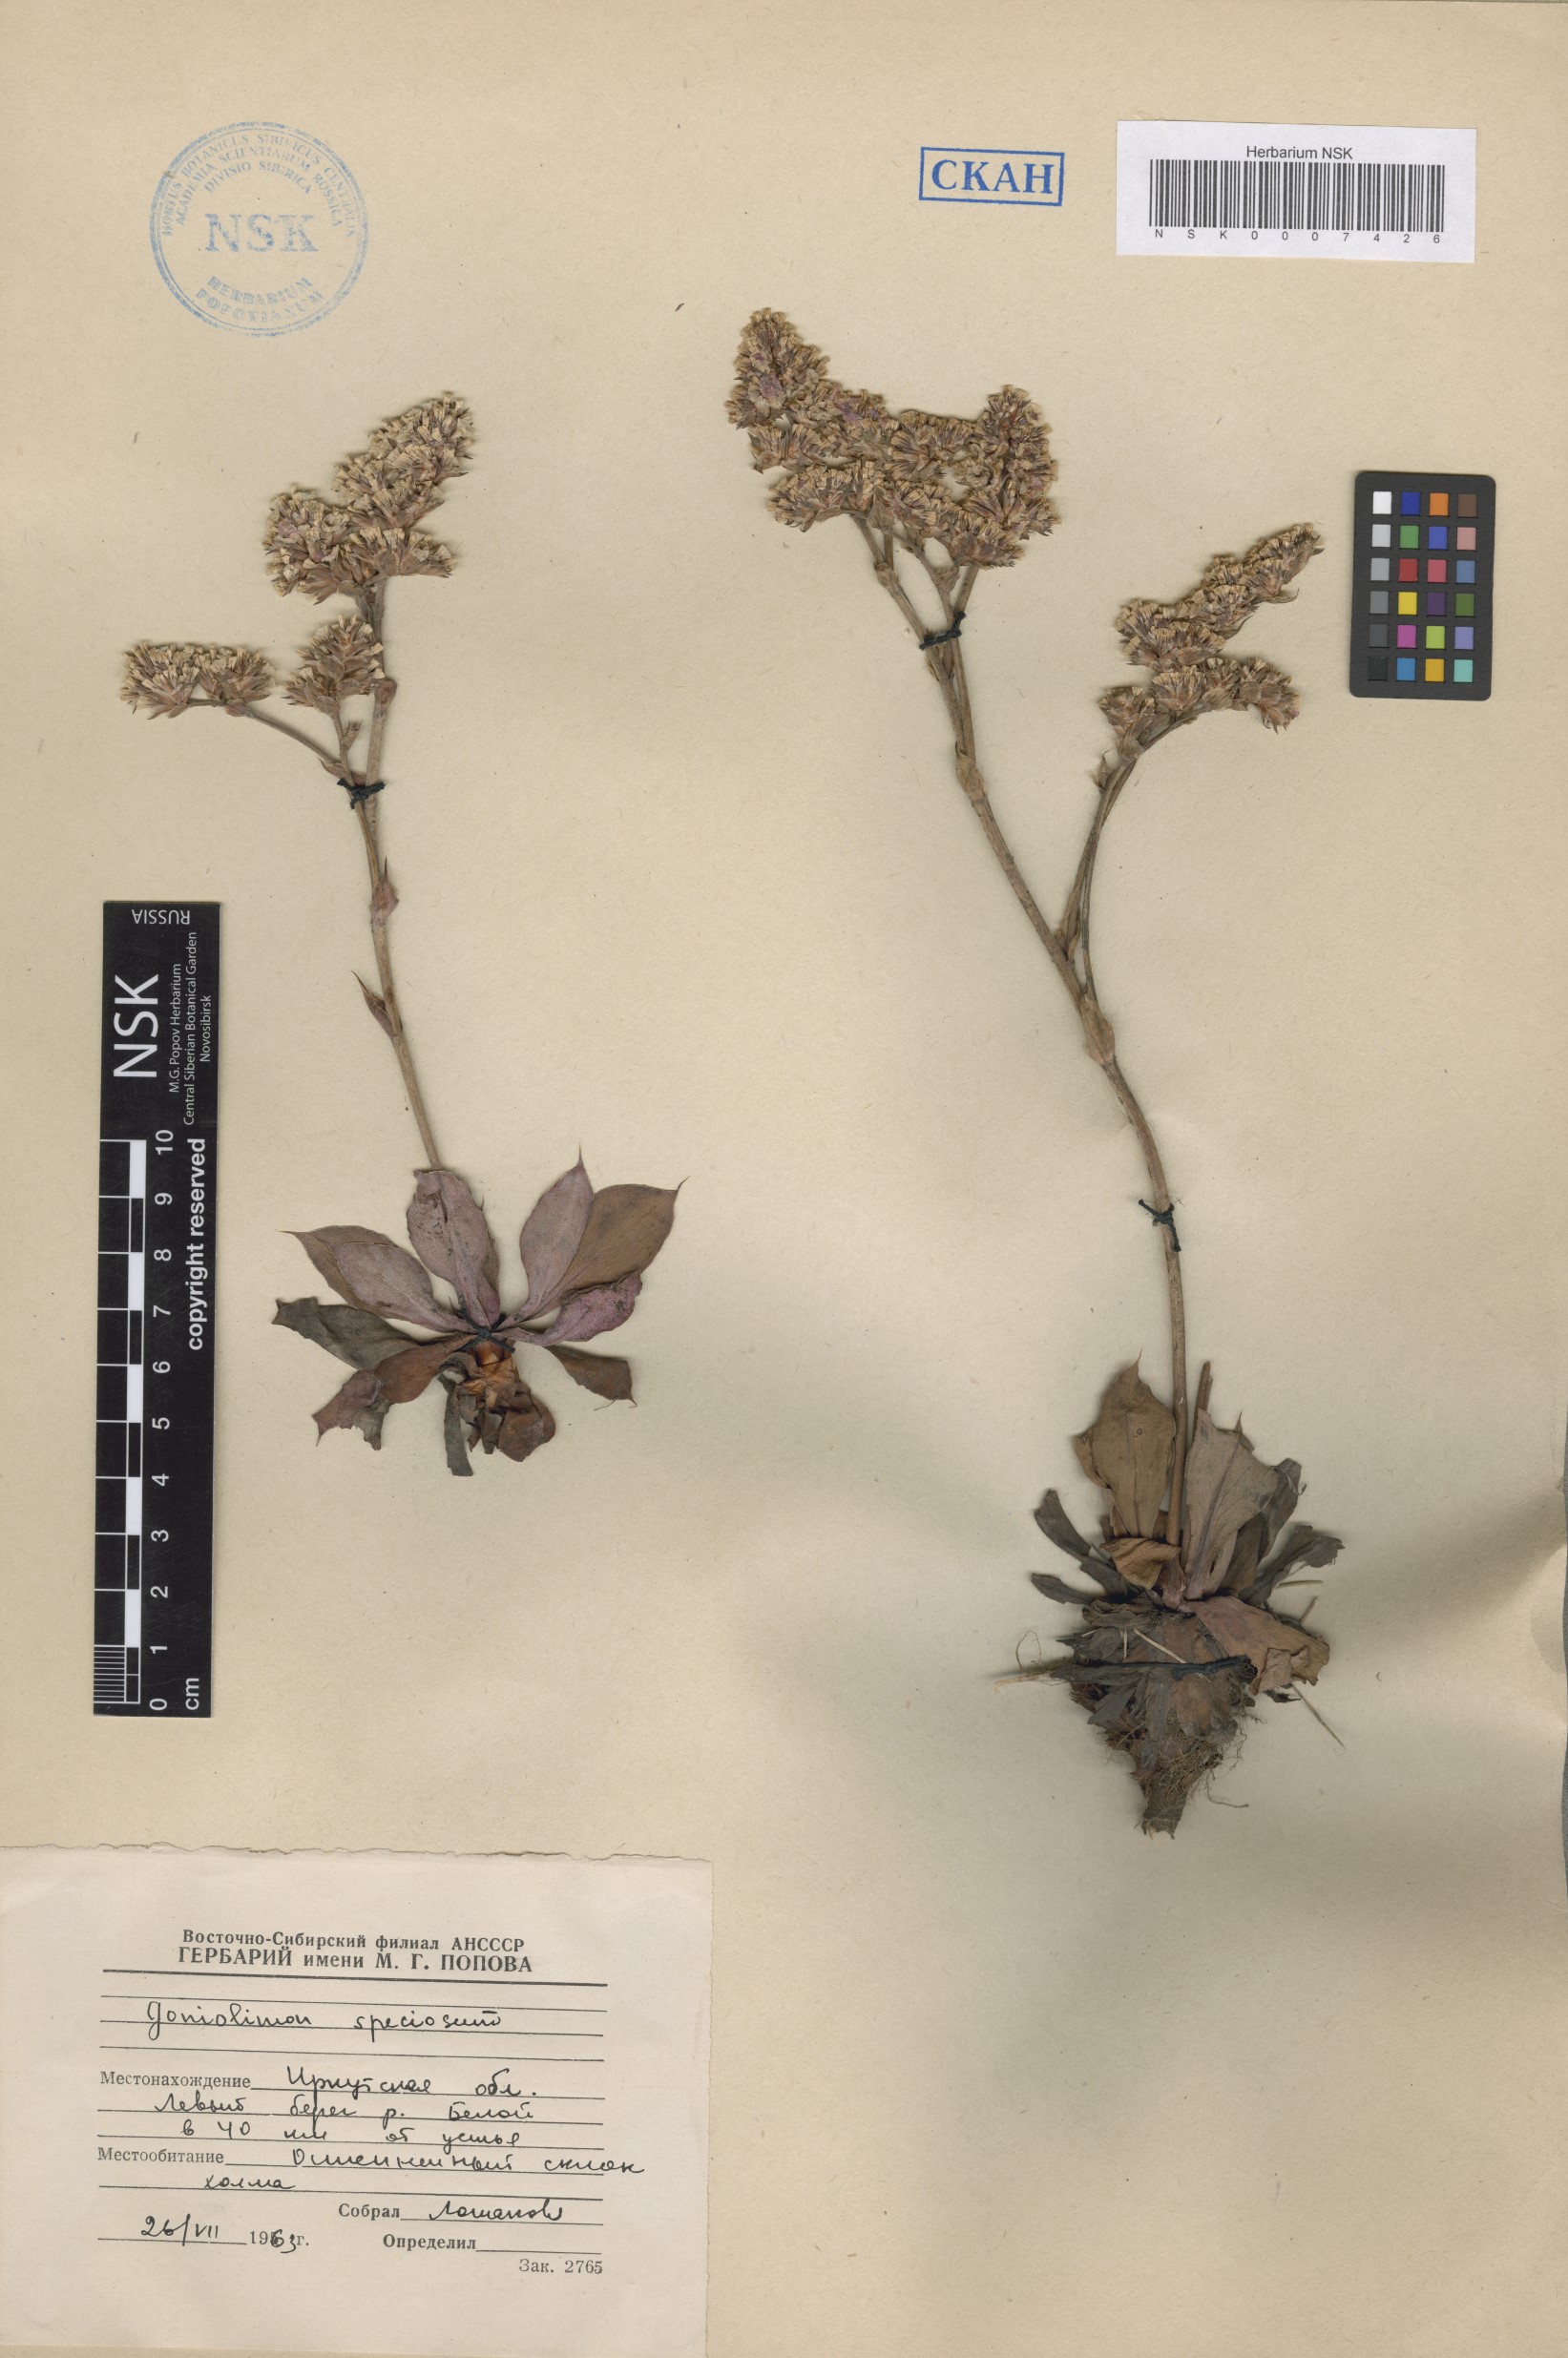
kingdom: Plantae
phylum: Tracheophyta
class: Magnoliopsida
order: Caryophyllales
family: Plumbaginaceae
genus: Goniolimon
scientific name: Goniolimon speciosum
